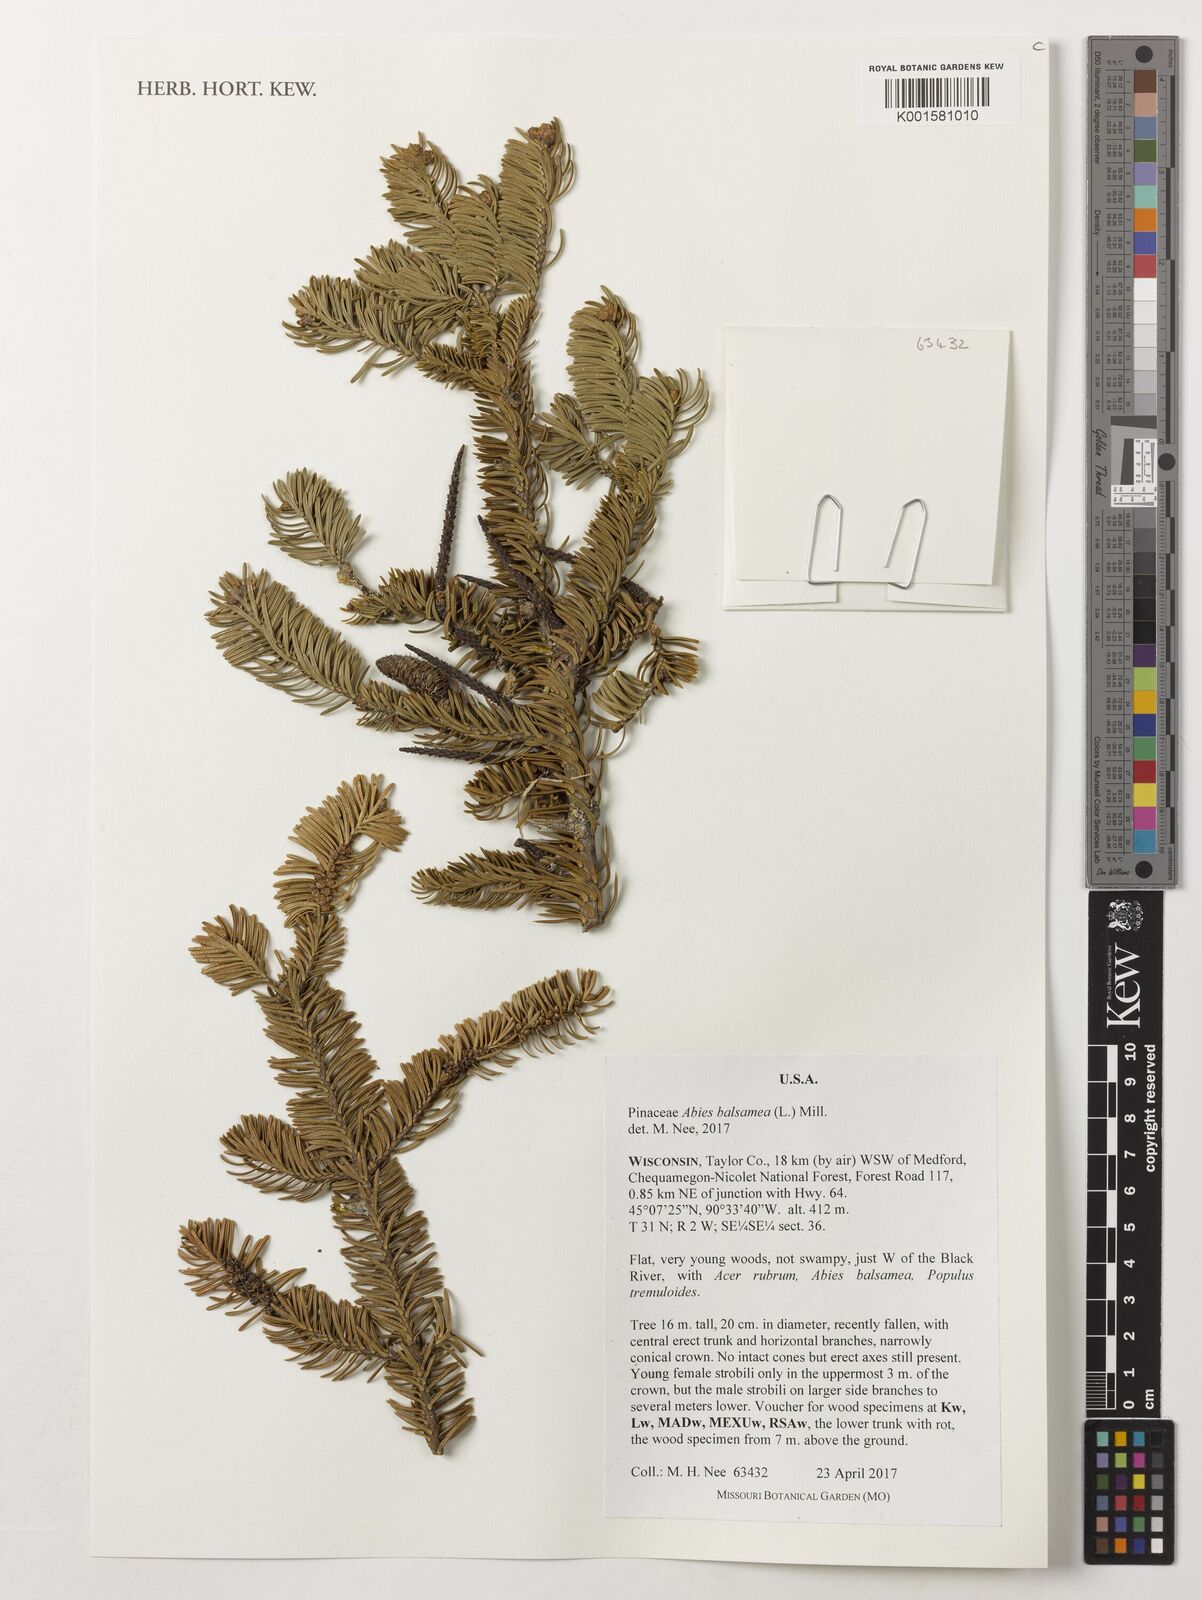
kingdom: Plantae
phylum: Tracheophyta
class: Pinopsida
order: Pinales
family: Pinaceae
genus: Abies
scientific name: Abies balsamea
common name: Balsam fir
